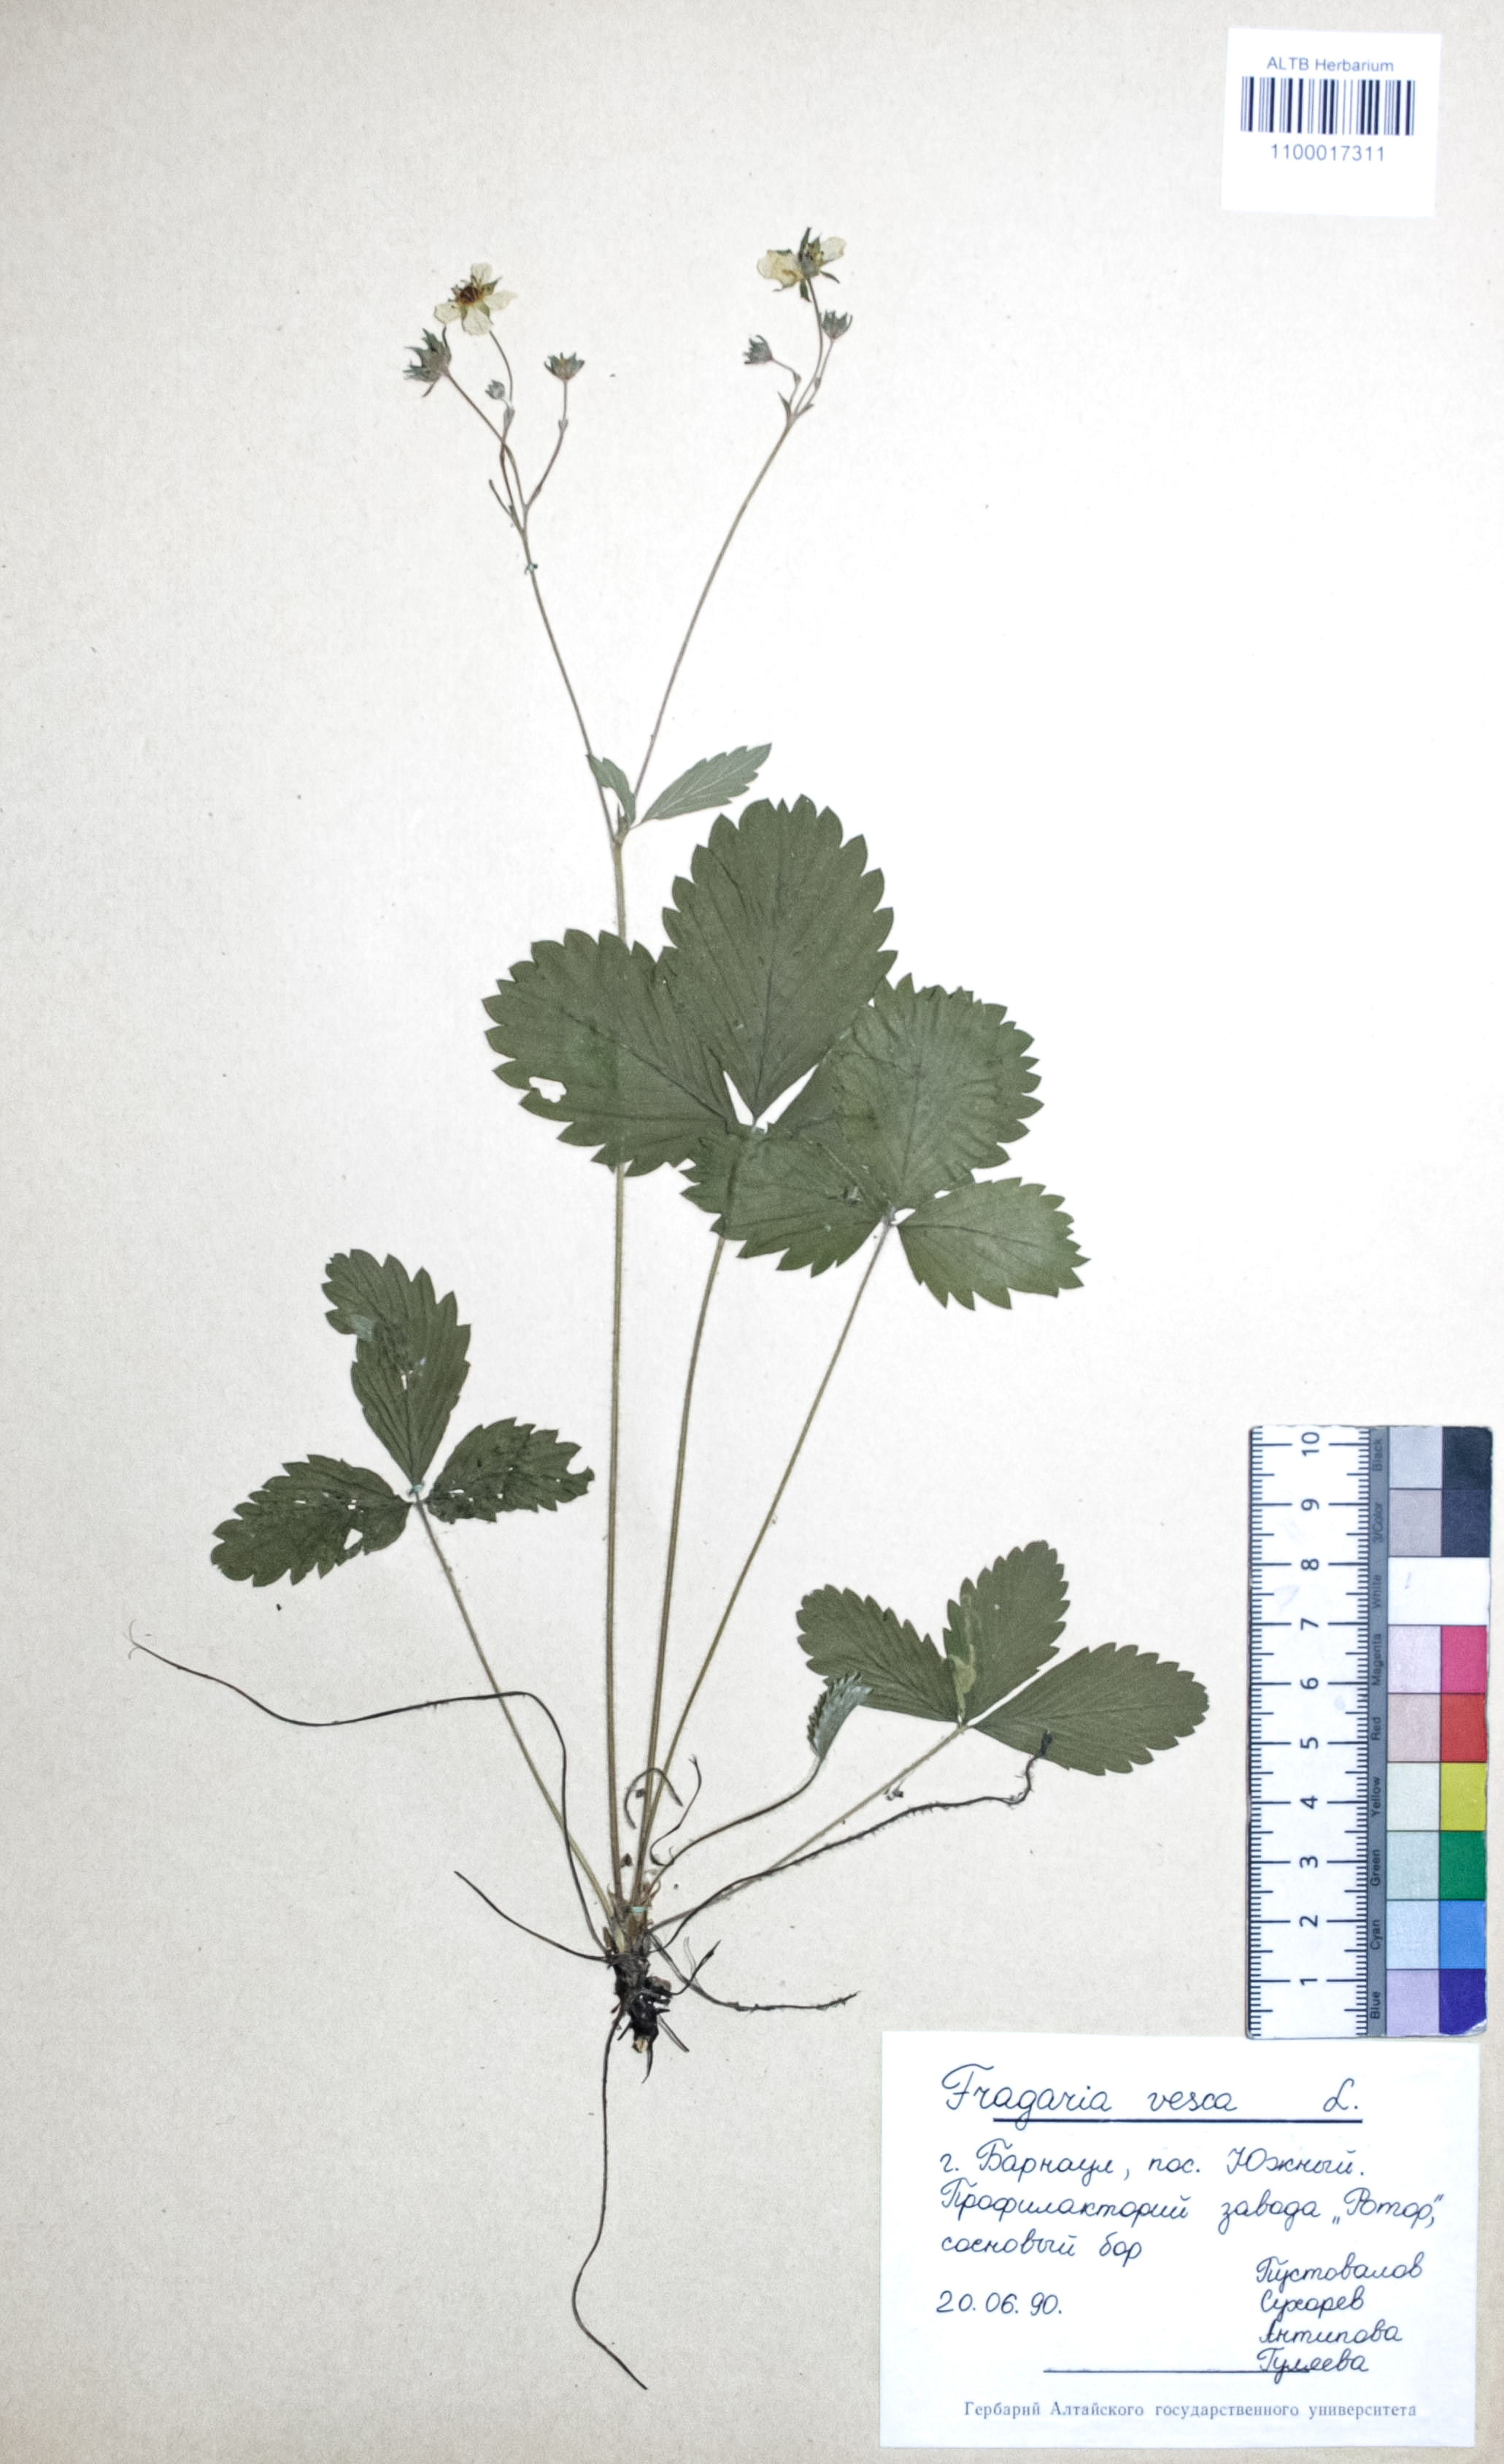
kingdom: Plantae
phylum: Tracheophyta
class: Magnoliopsida
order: Rosales
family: Rosaceae
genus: Fragaria
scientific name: Fragaria vesca
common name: Wild strawberry
